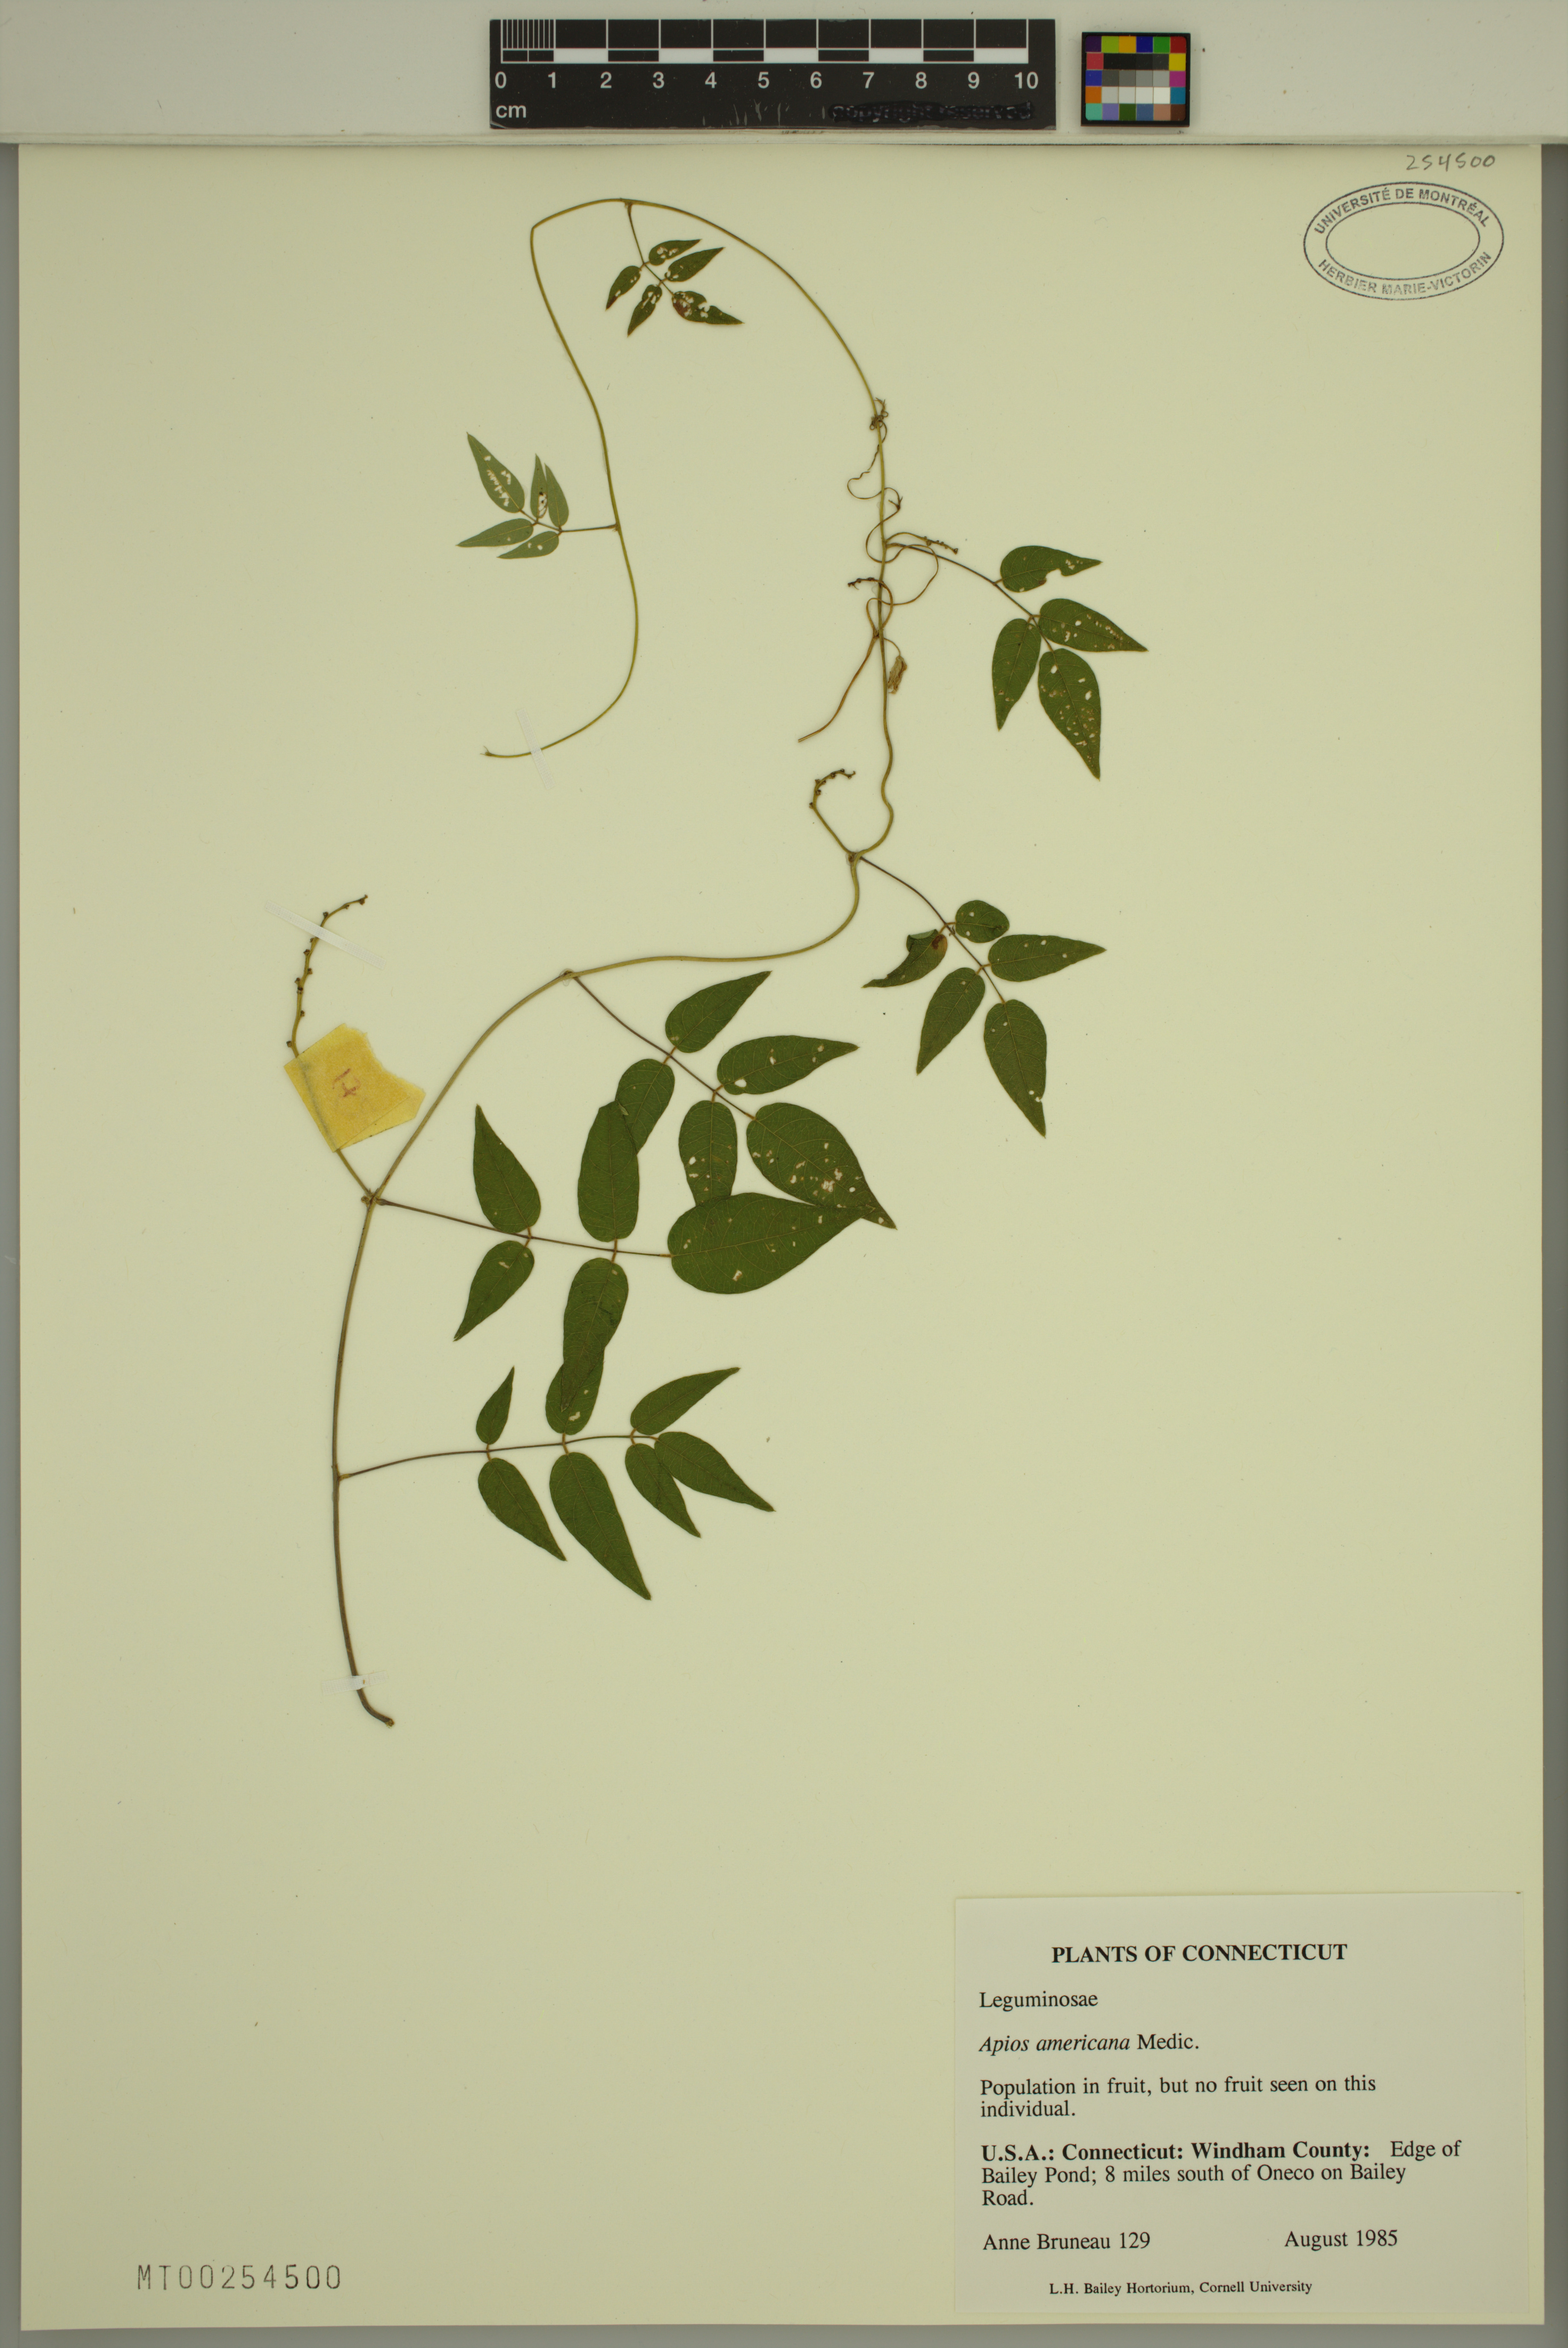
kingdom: Plantae
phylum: Tracheophyta
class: Magnoliopsida
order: Fabales
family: Fabaceae
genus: Apios
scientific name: Apios americana
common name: American potato-bean
